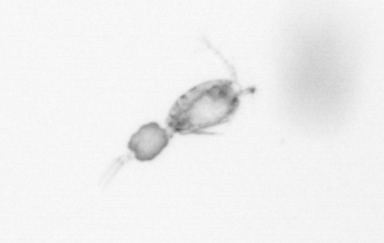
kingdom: Animalia
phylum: Arthropoda
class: Copepoda
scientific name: Copepoda
